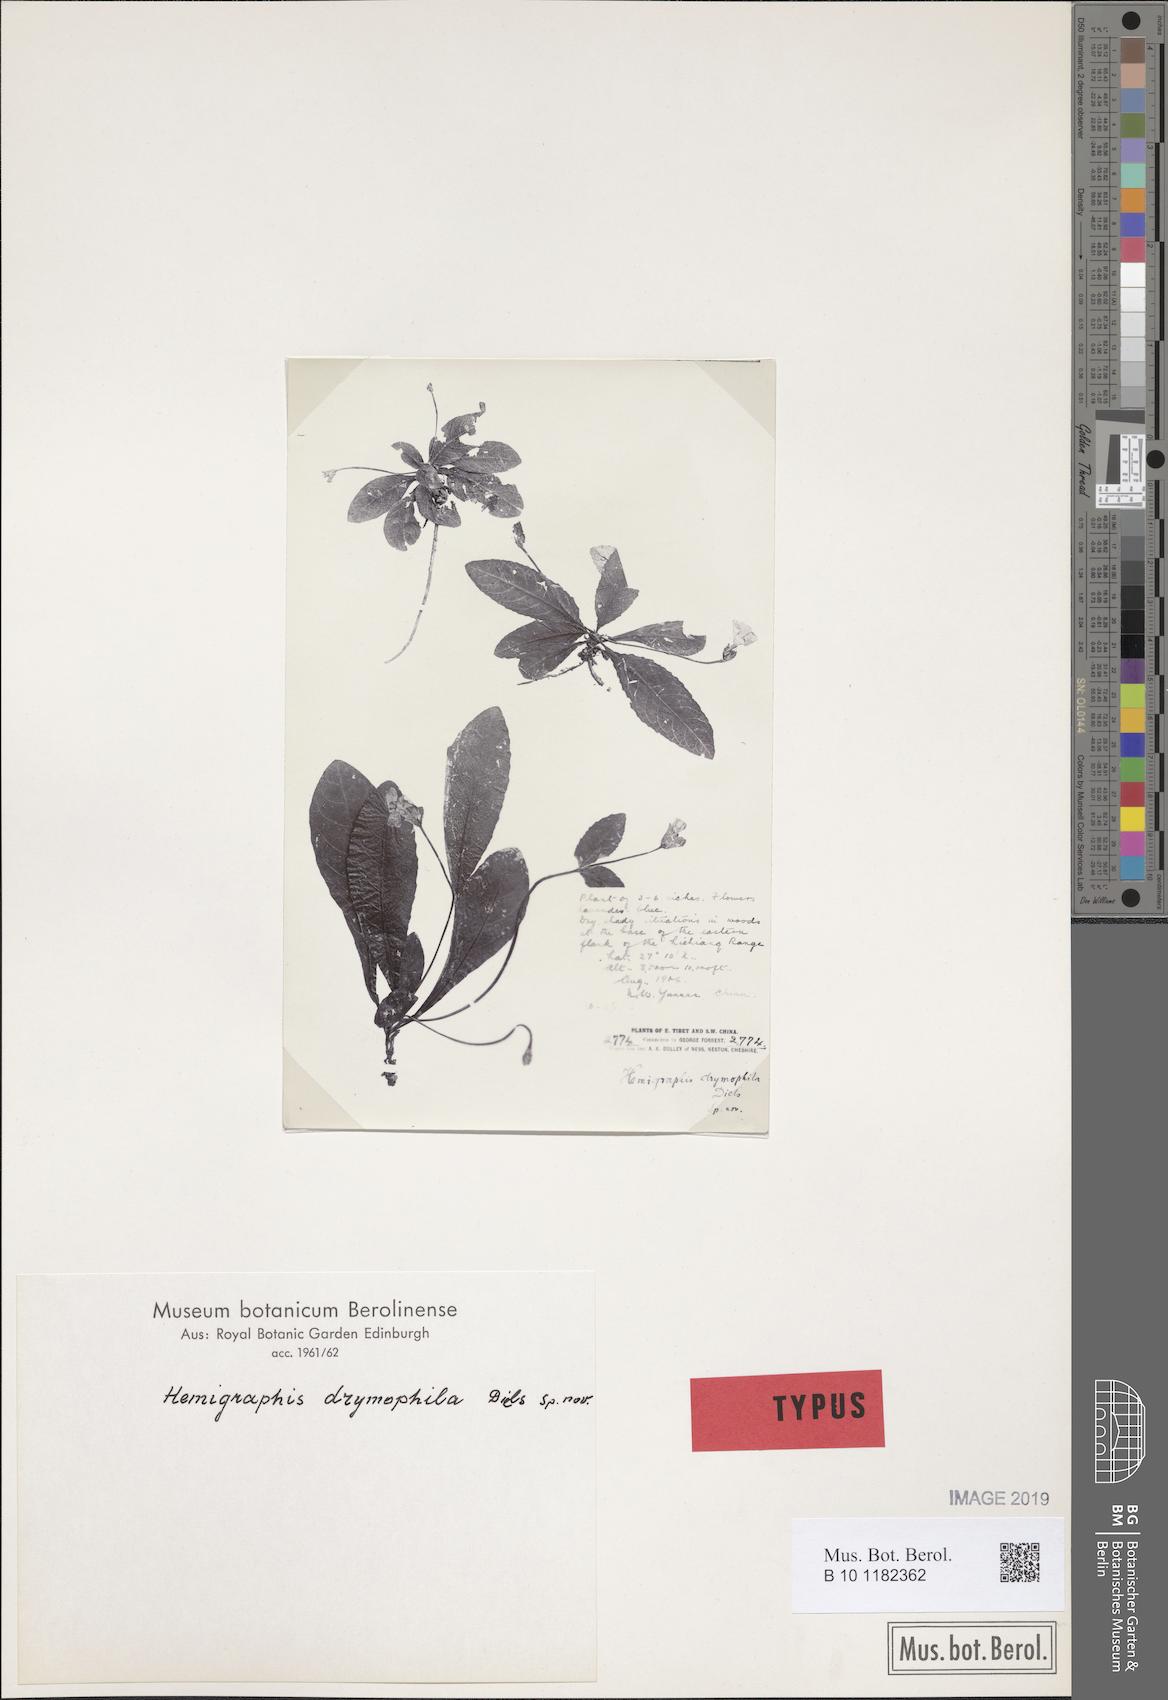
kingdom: Plantae
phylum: Tracheophyta
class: Magnoliopsida
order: Lamiales
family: Acanthaceae
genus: Pararuellia
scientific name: Pararuellia delavayana
